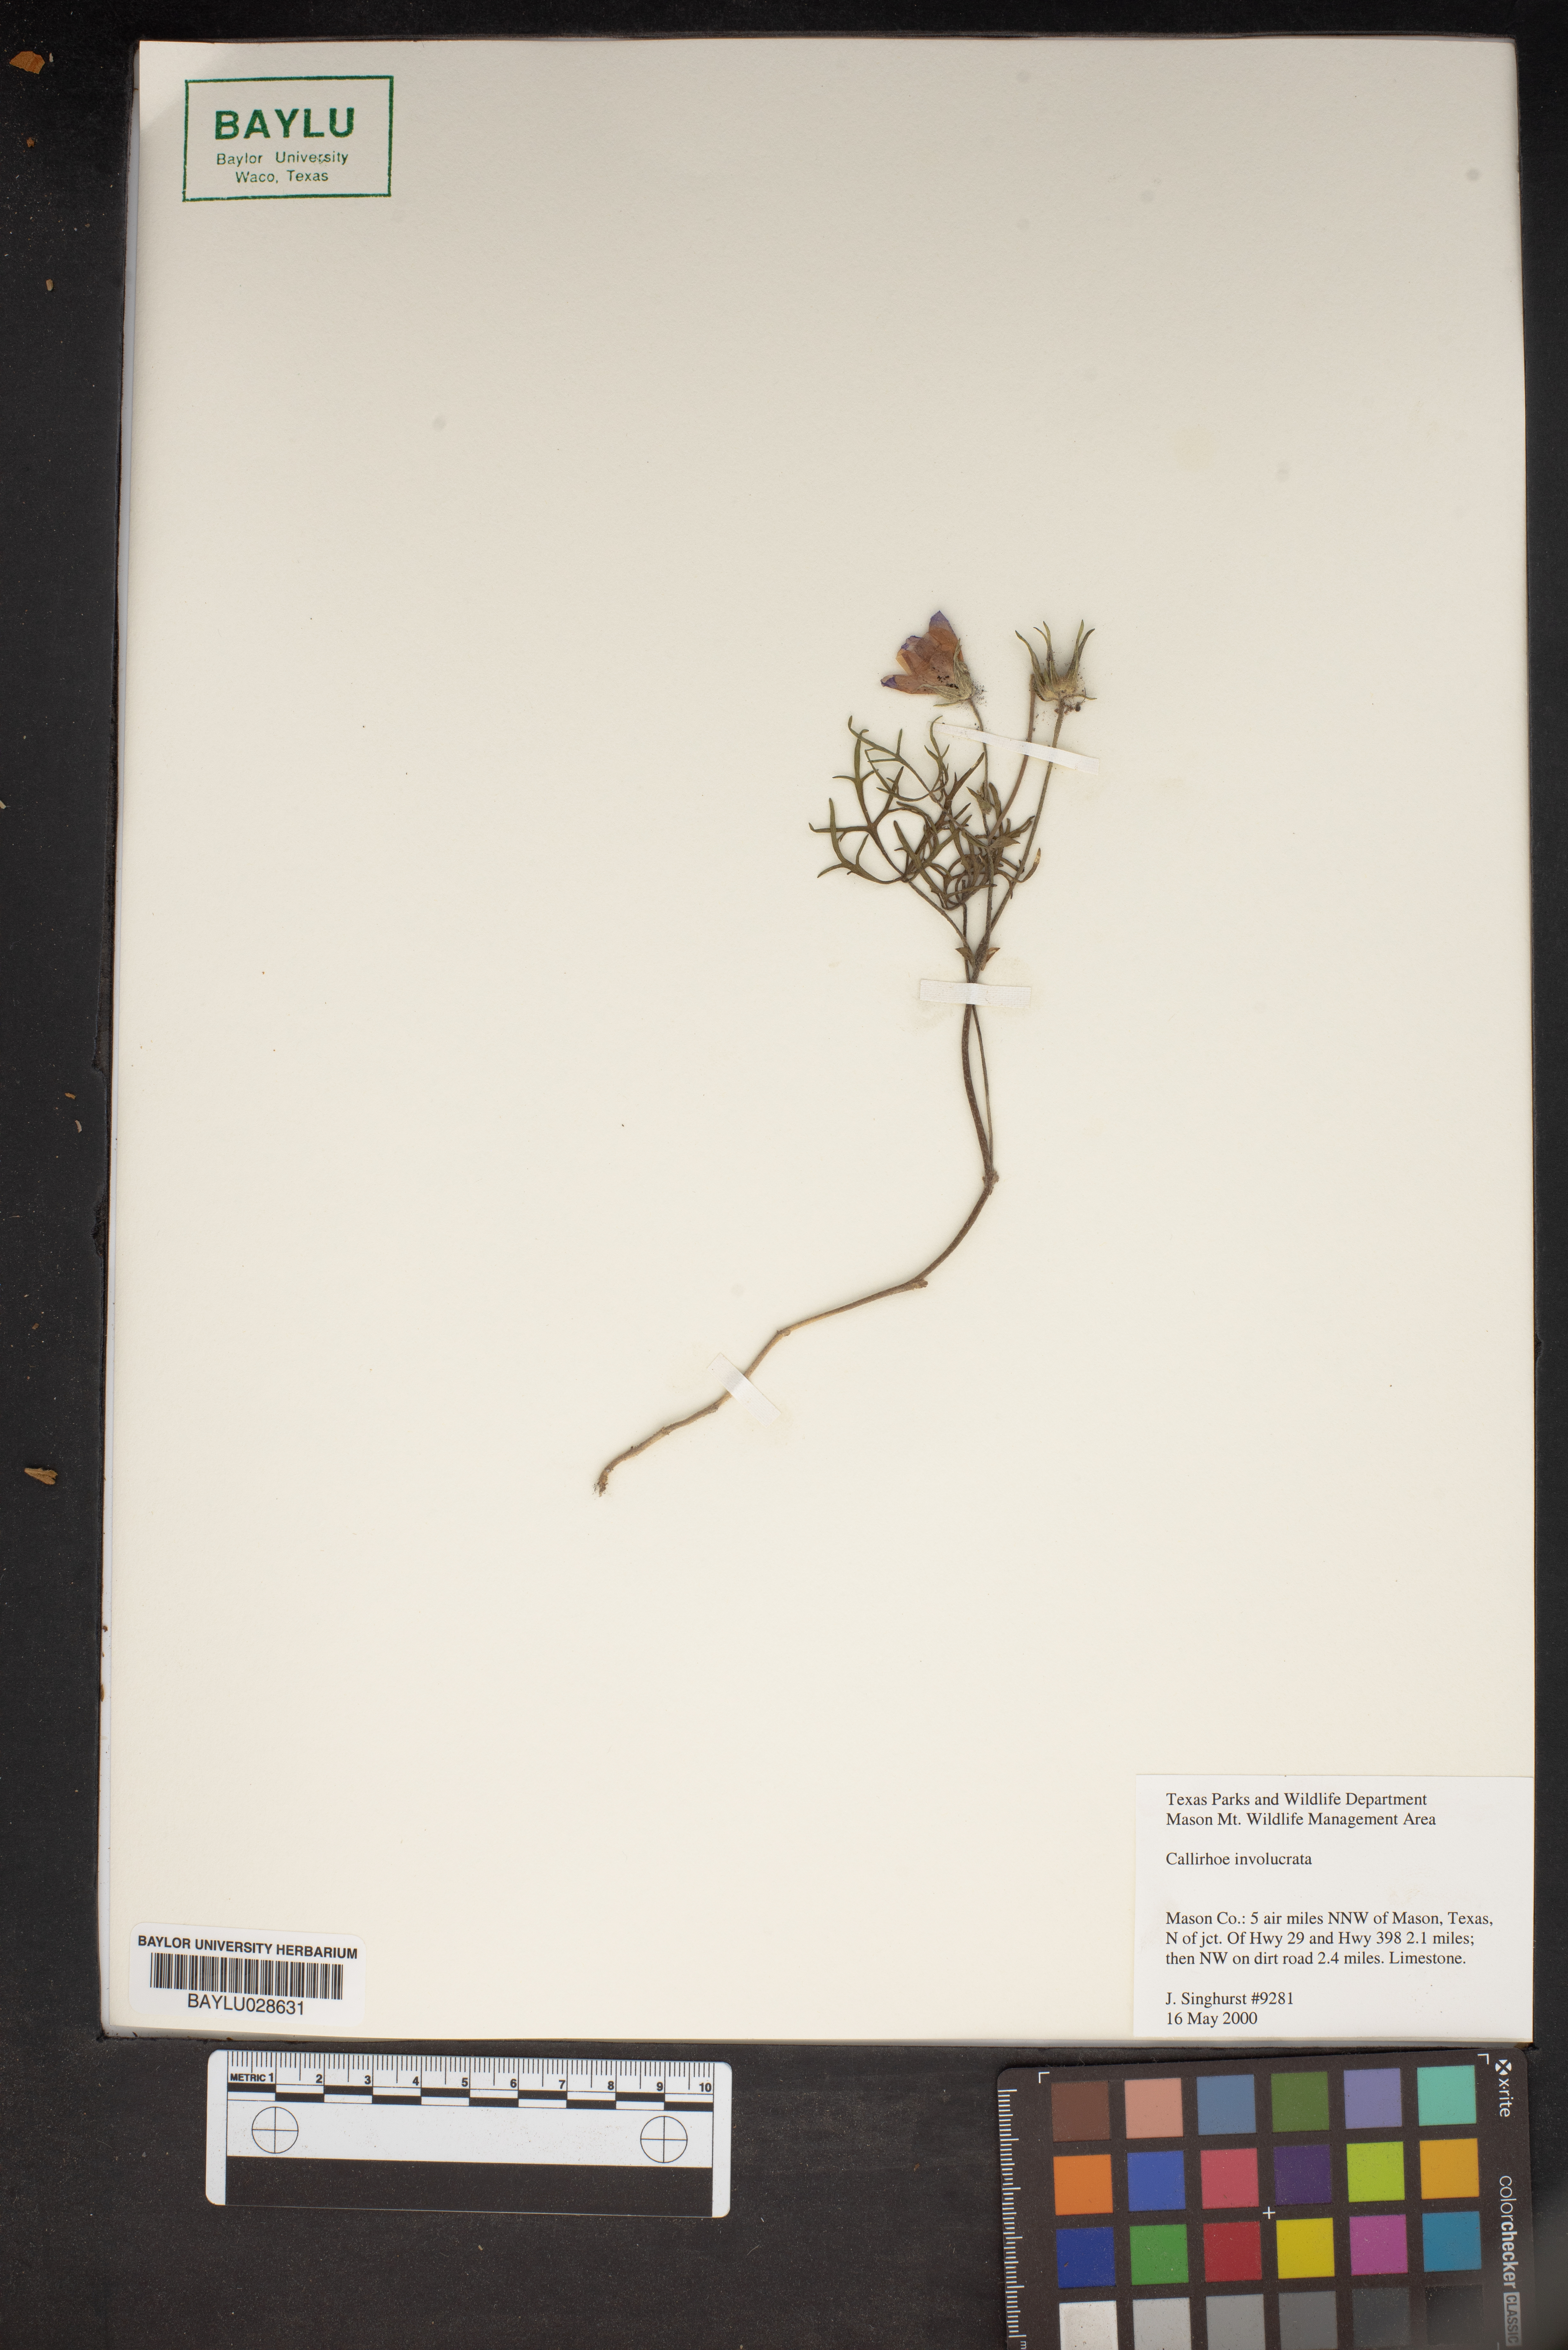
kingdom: Plantae
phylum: Tracheophyta
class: Magnoliopsida
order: Malvales
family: Malvaceae
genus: Callirhoe
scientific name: Callirhoe involucrata
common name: Purple poppy-mallow
